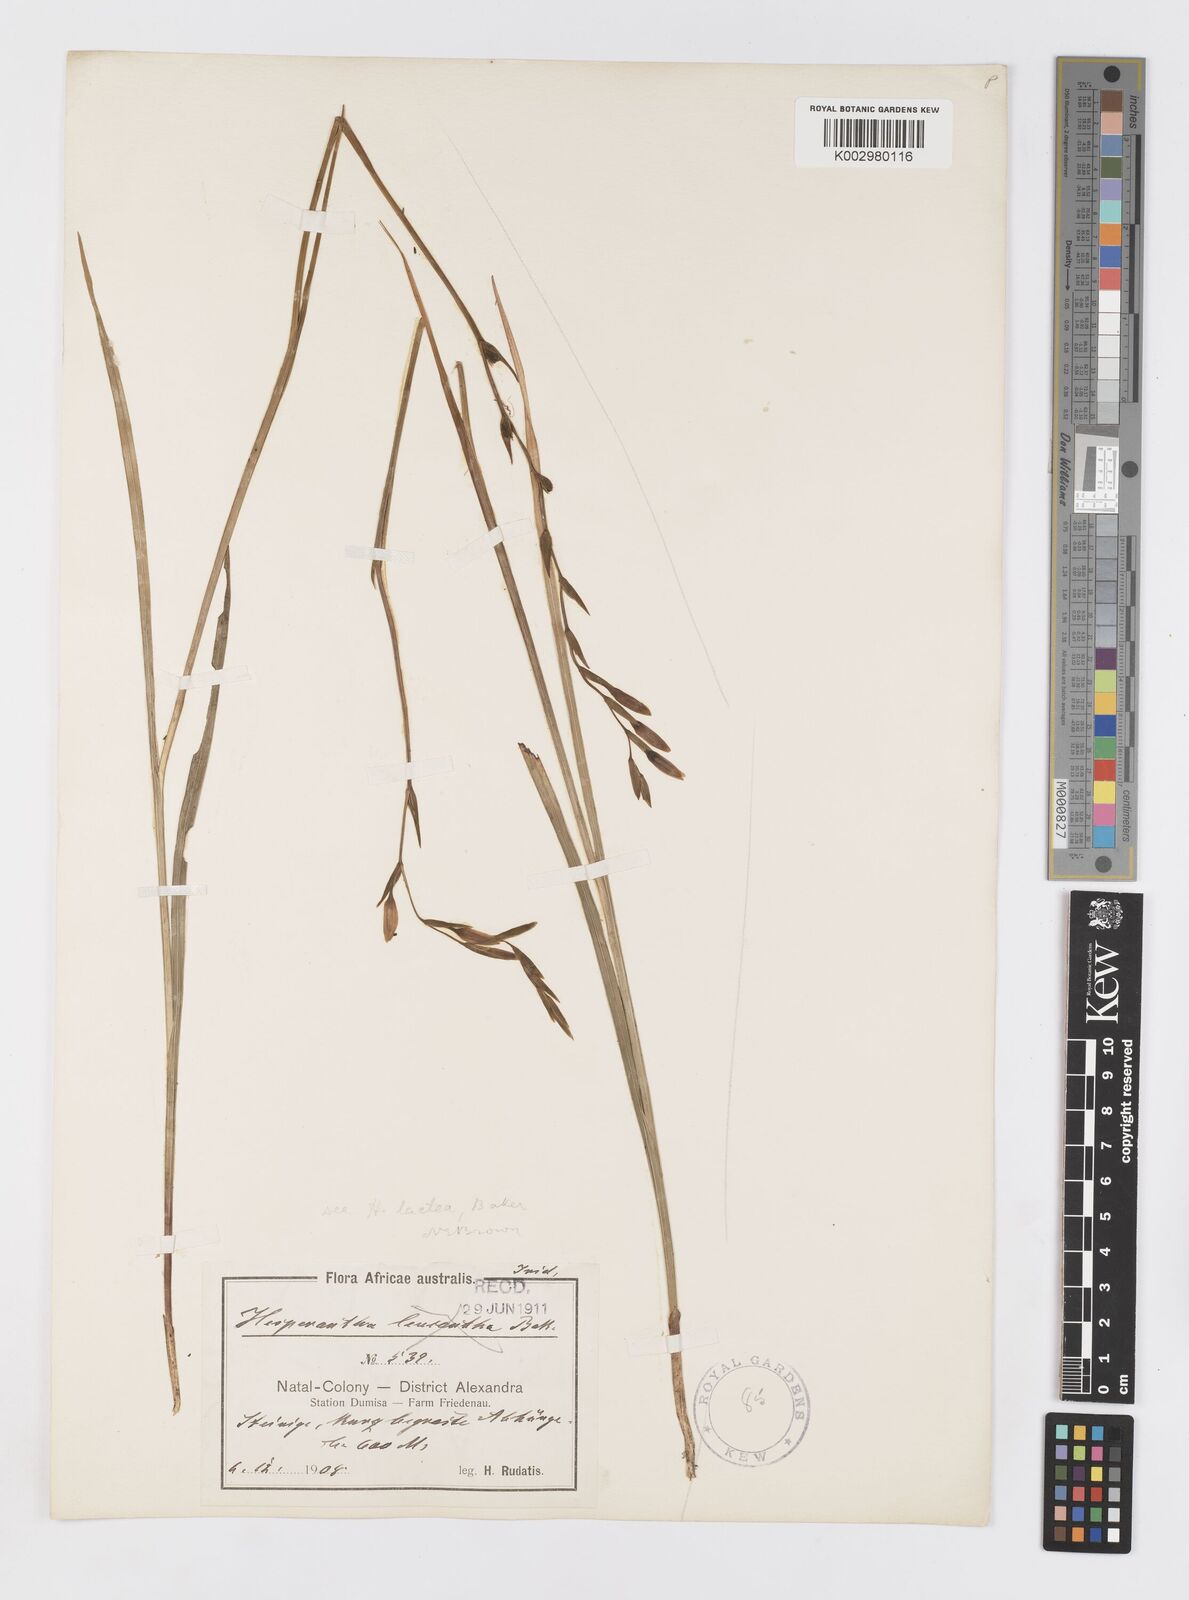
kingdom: Plantae
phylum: Tracheophyta
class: Liliopsida
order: Asparagales
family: Iridaceae
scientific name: Iridaceae
